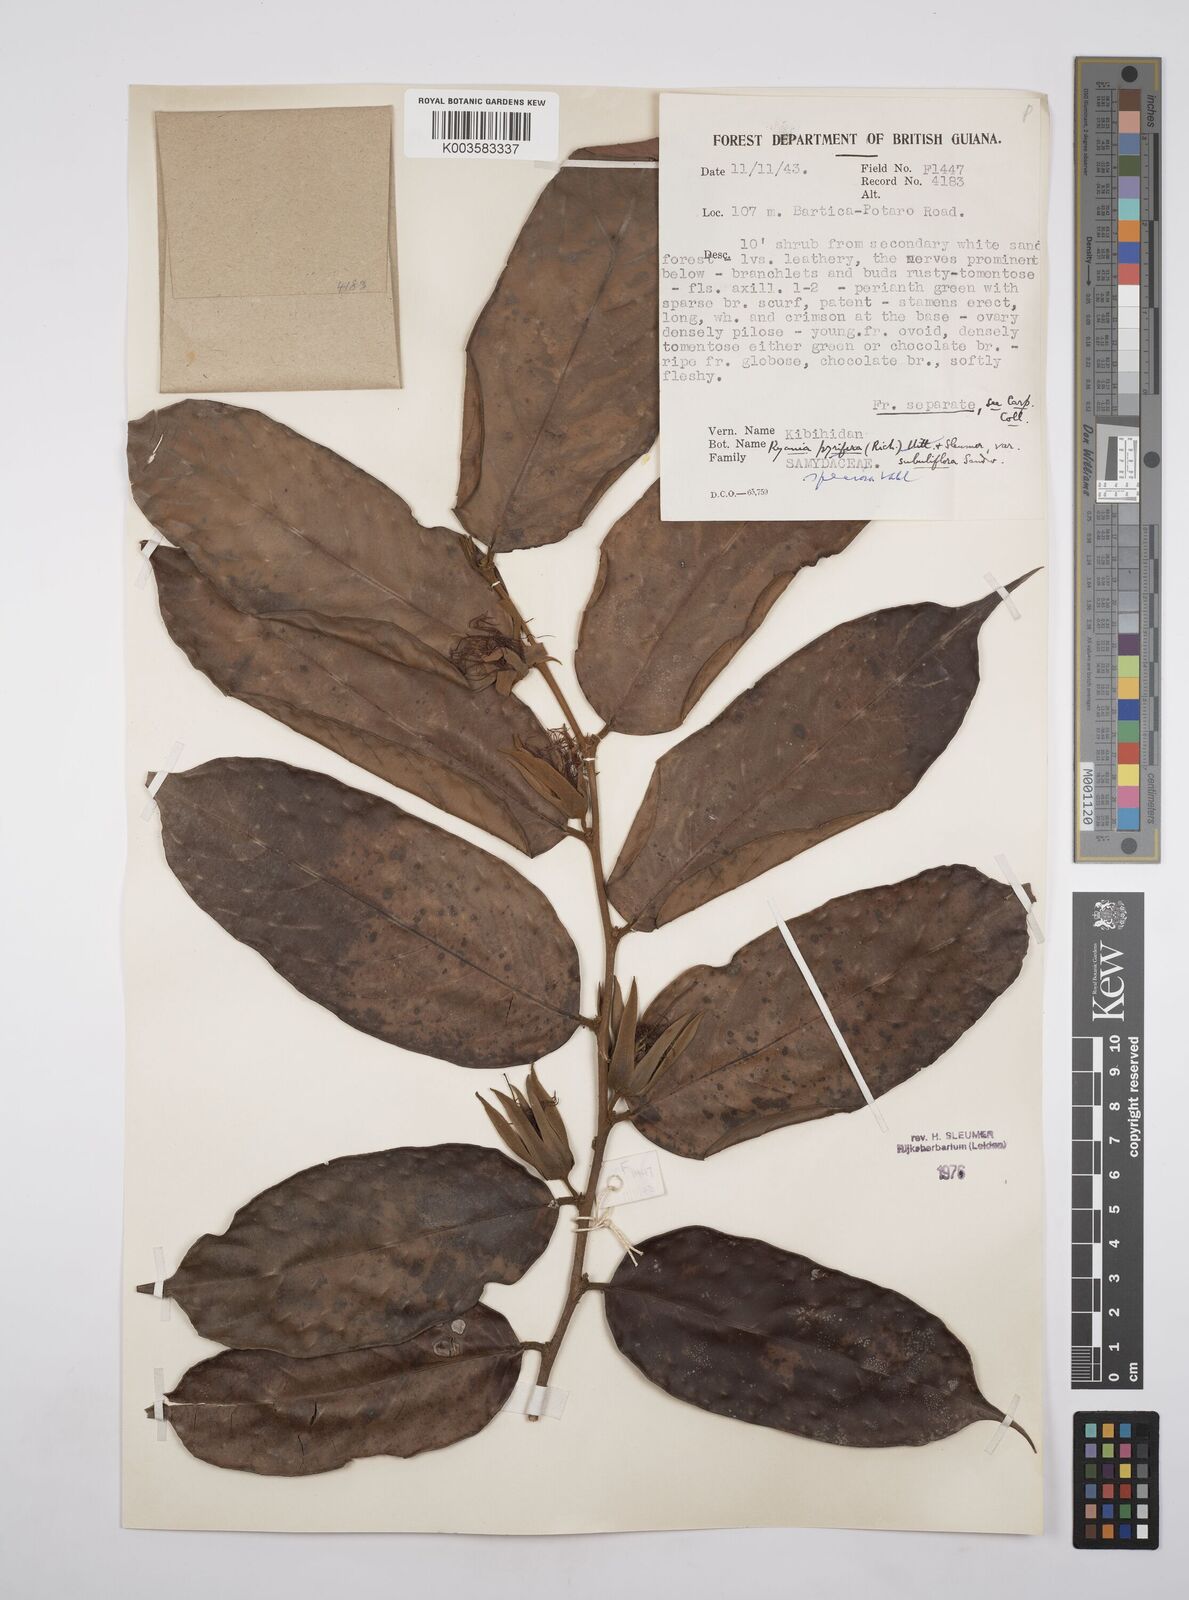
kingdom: Plantae
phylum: Tracheophyta
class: Magnoliopsida
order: Malpighiales
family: Salicaceae
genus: Ryania
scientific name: Ryania speciosa
